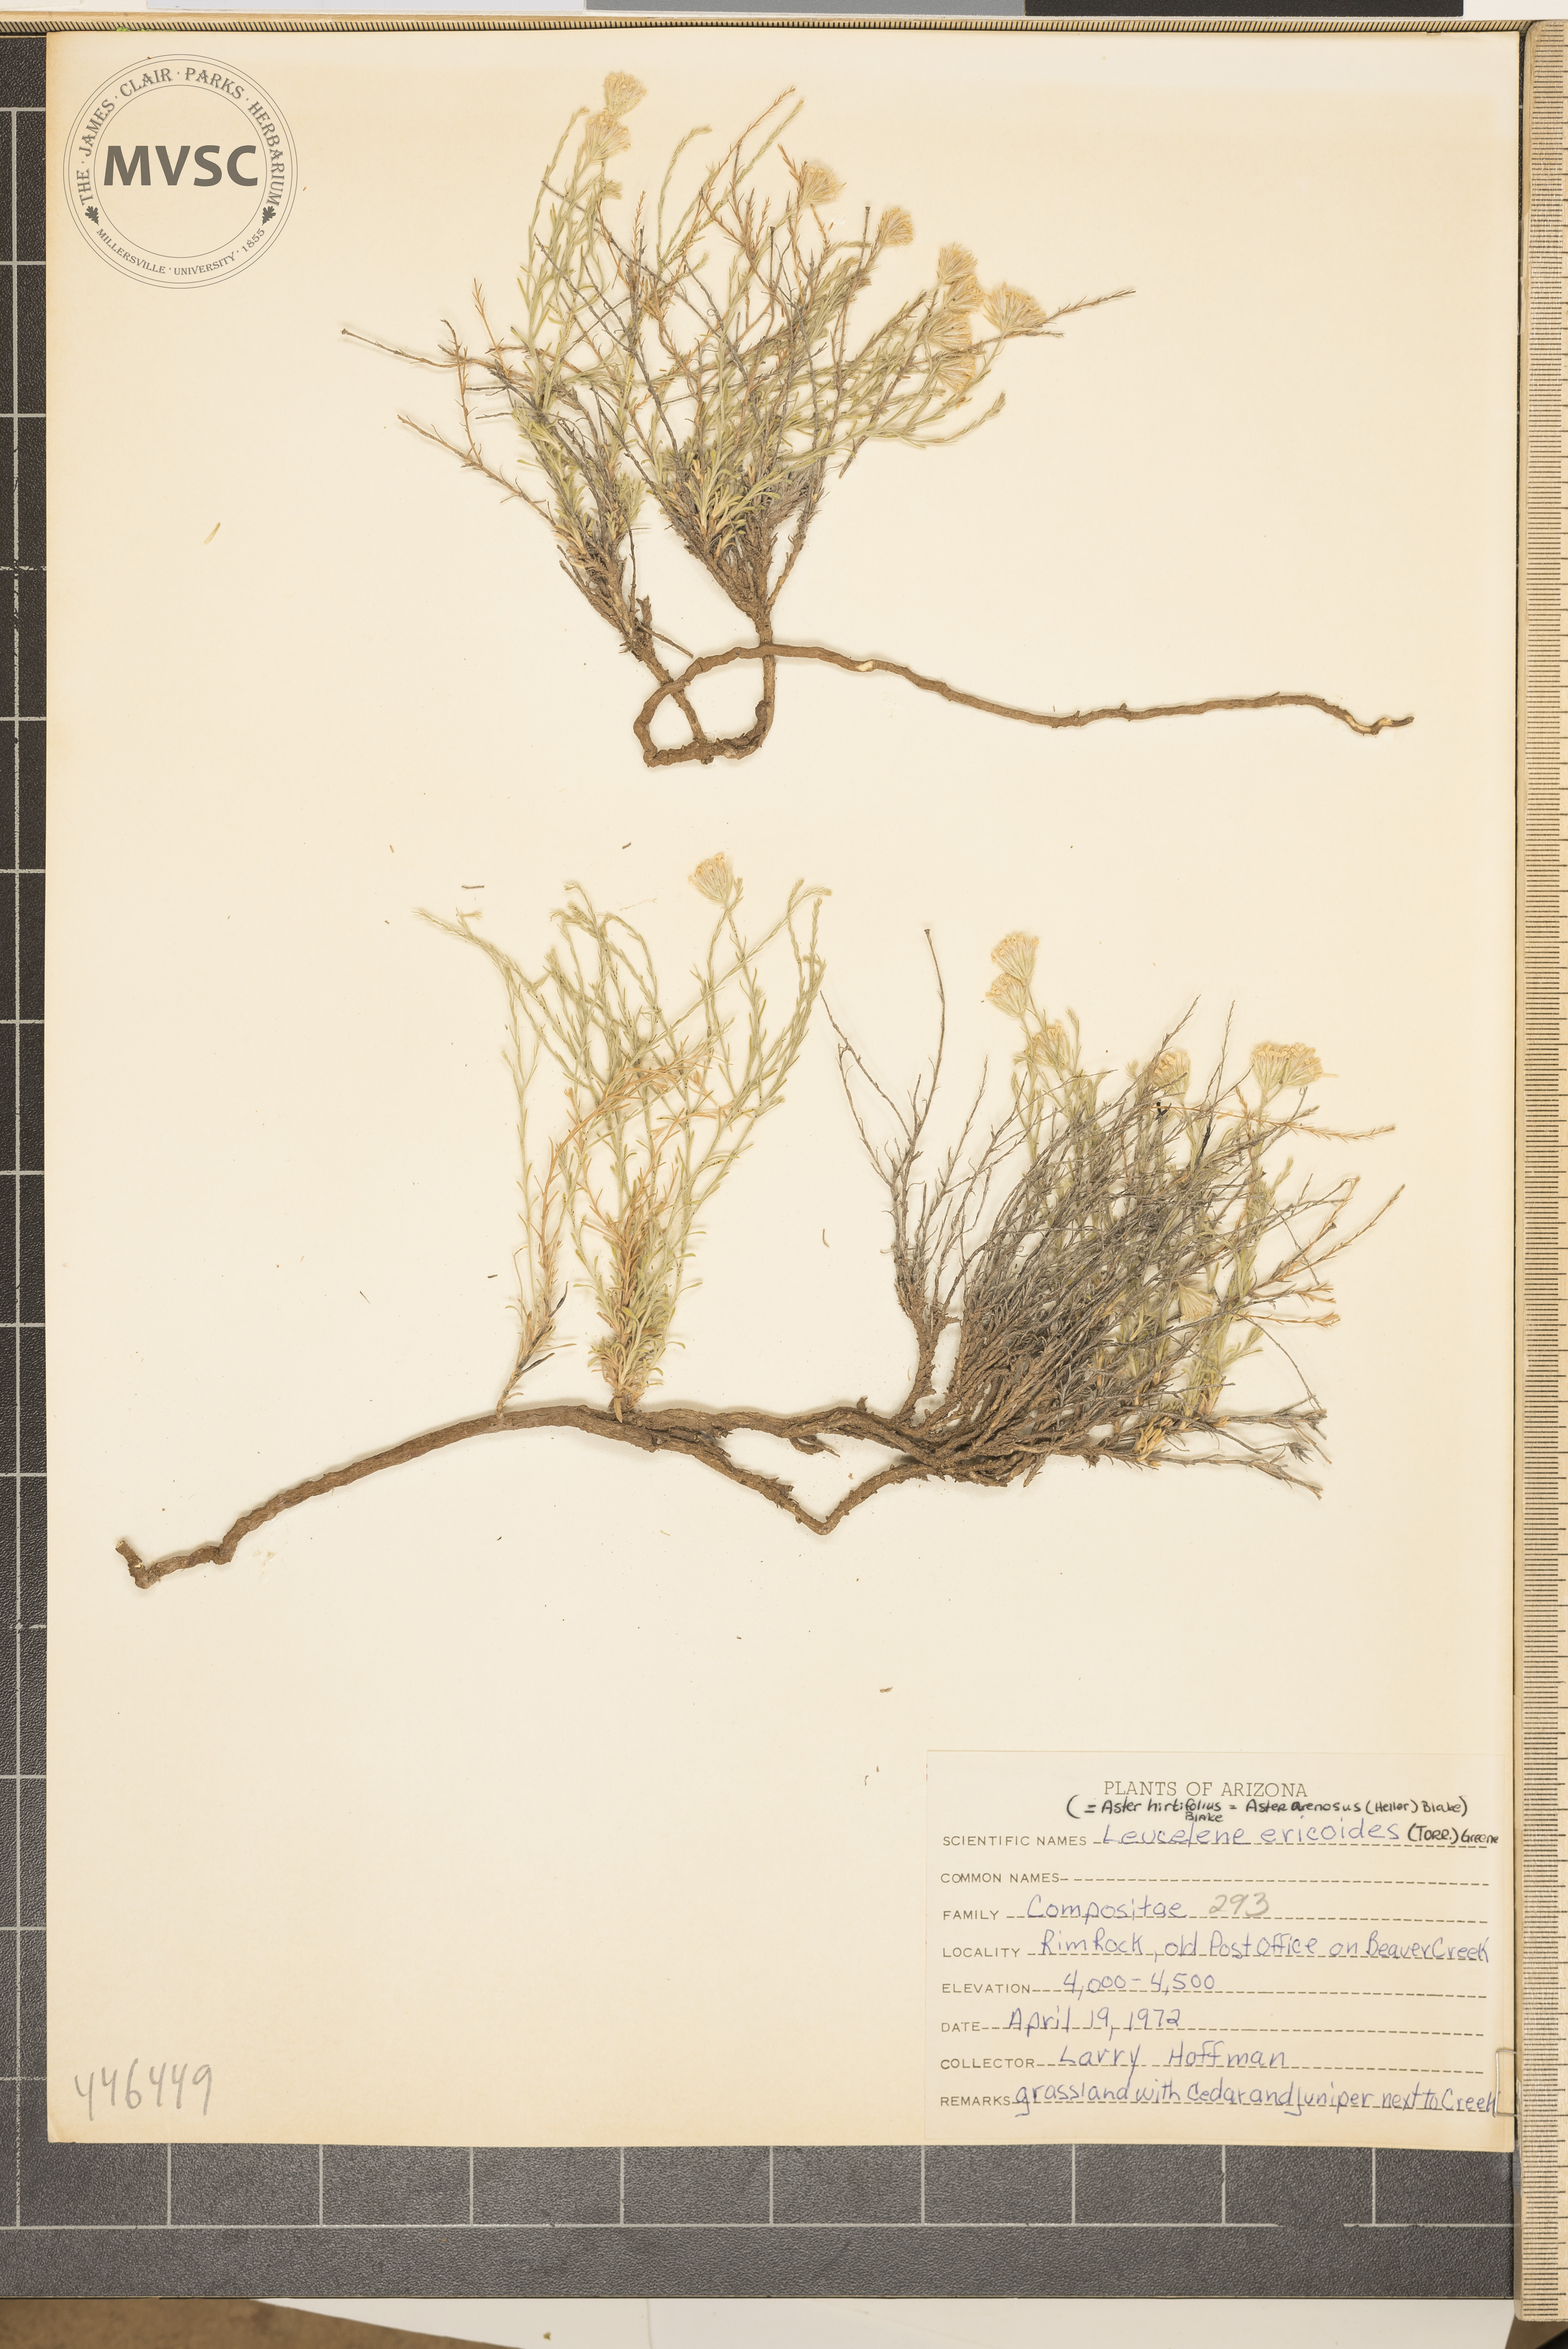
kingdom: Plantae
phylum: Tracheophyta
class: Magnoliopsida
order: Asterales
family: Asteraceae
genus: Chaetopappa
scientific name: Chaetopappa ericoides
